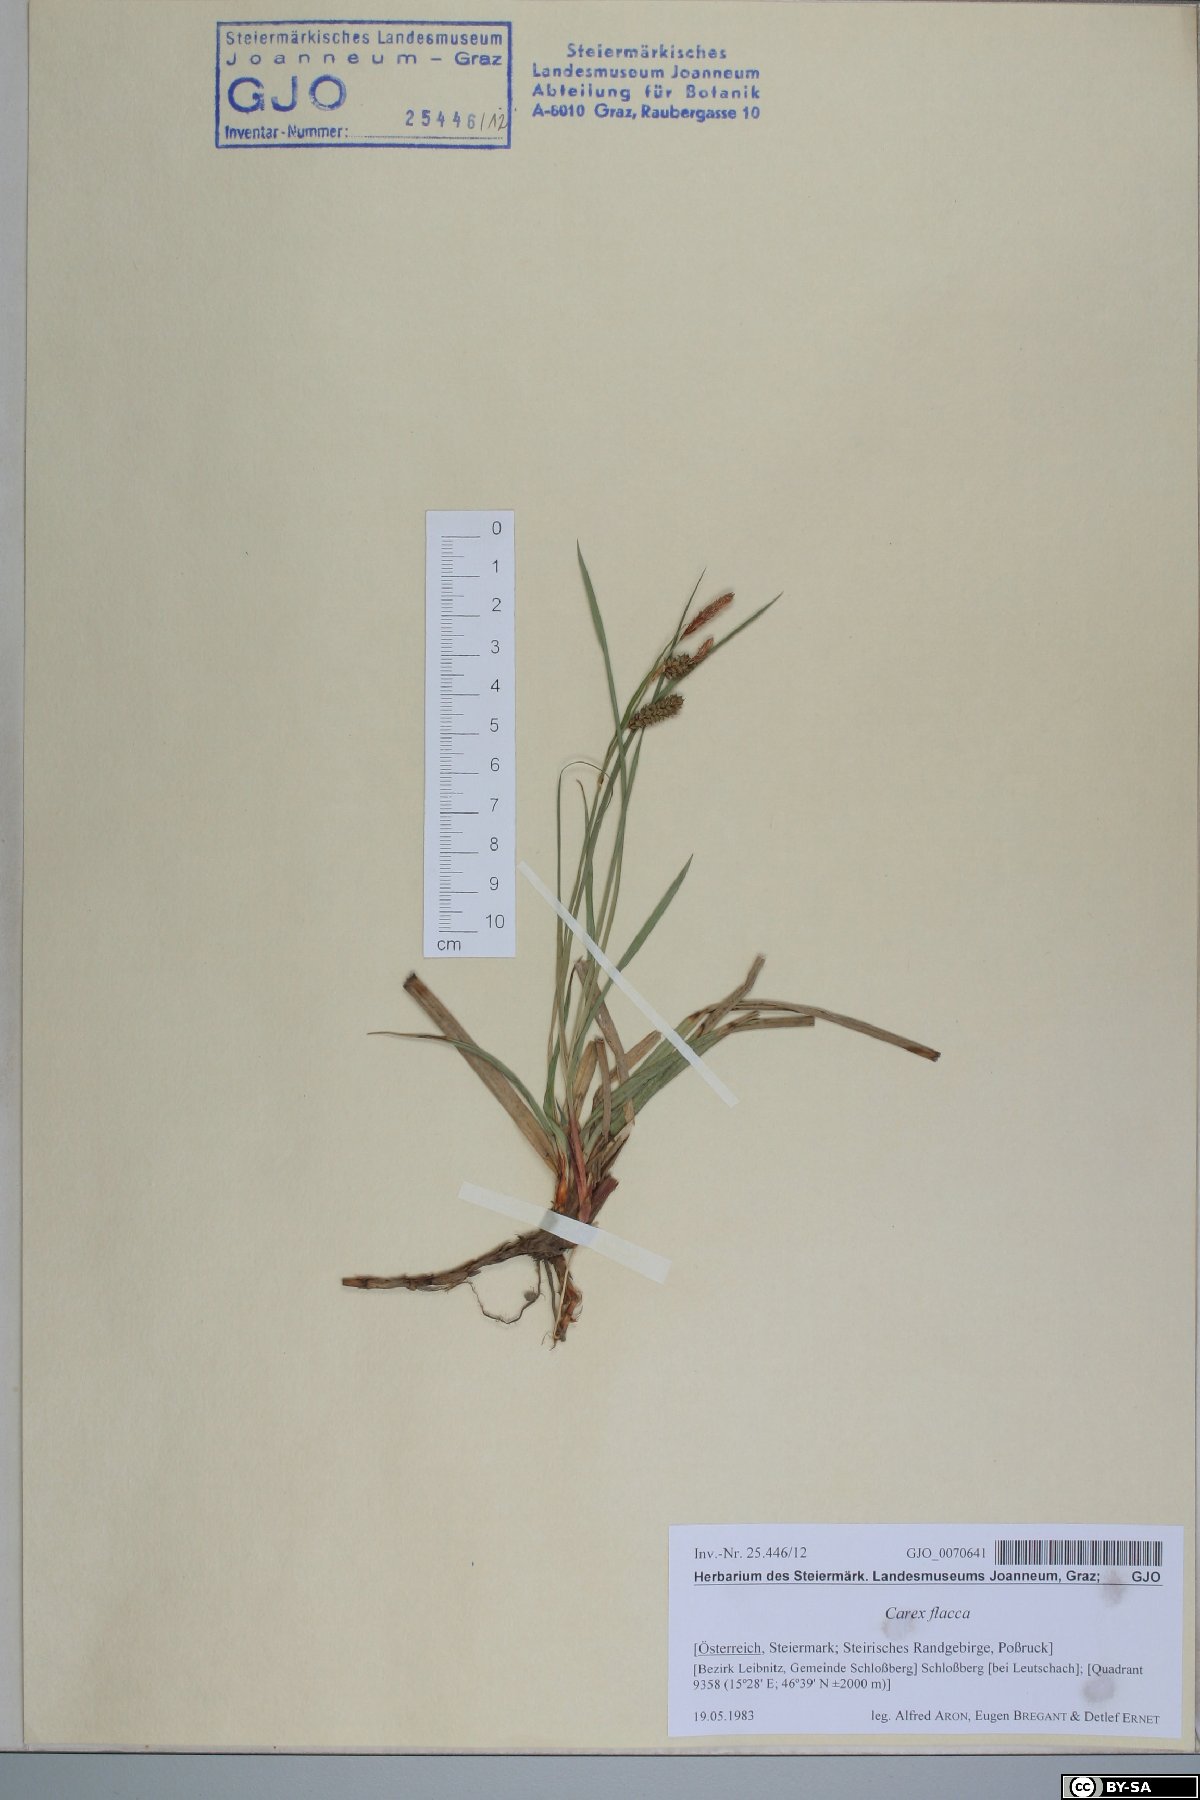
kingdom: Plantae
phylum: Tracheophyta
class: Liliopsida
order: Poales
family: Cyperaceae
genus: Carex
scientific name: Carex flacca
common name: Glaucous sedge
